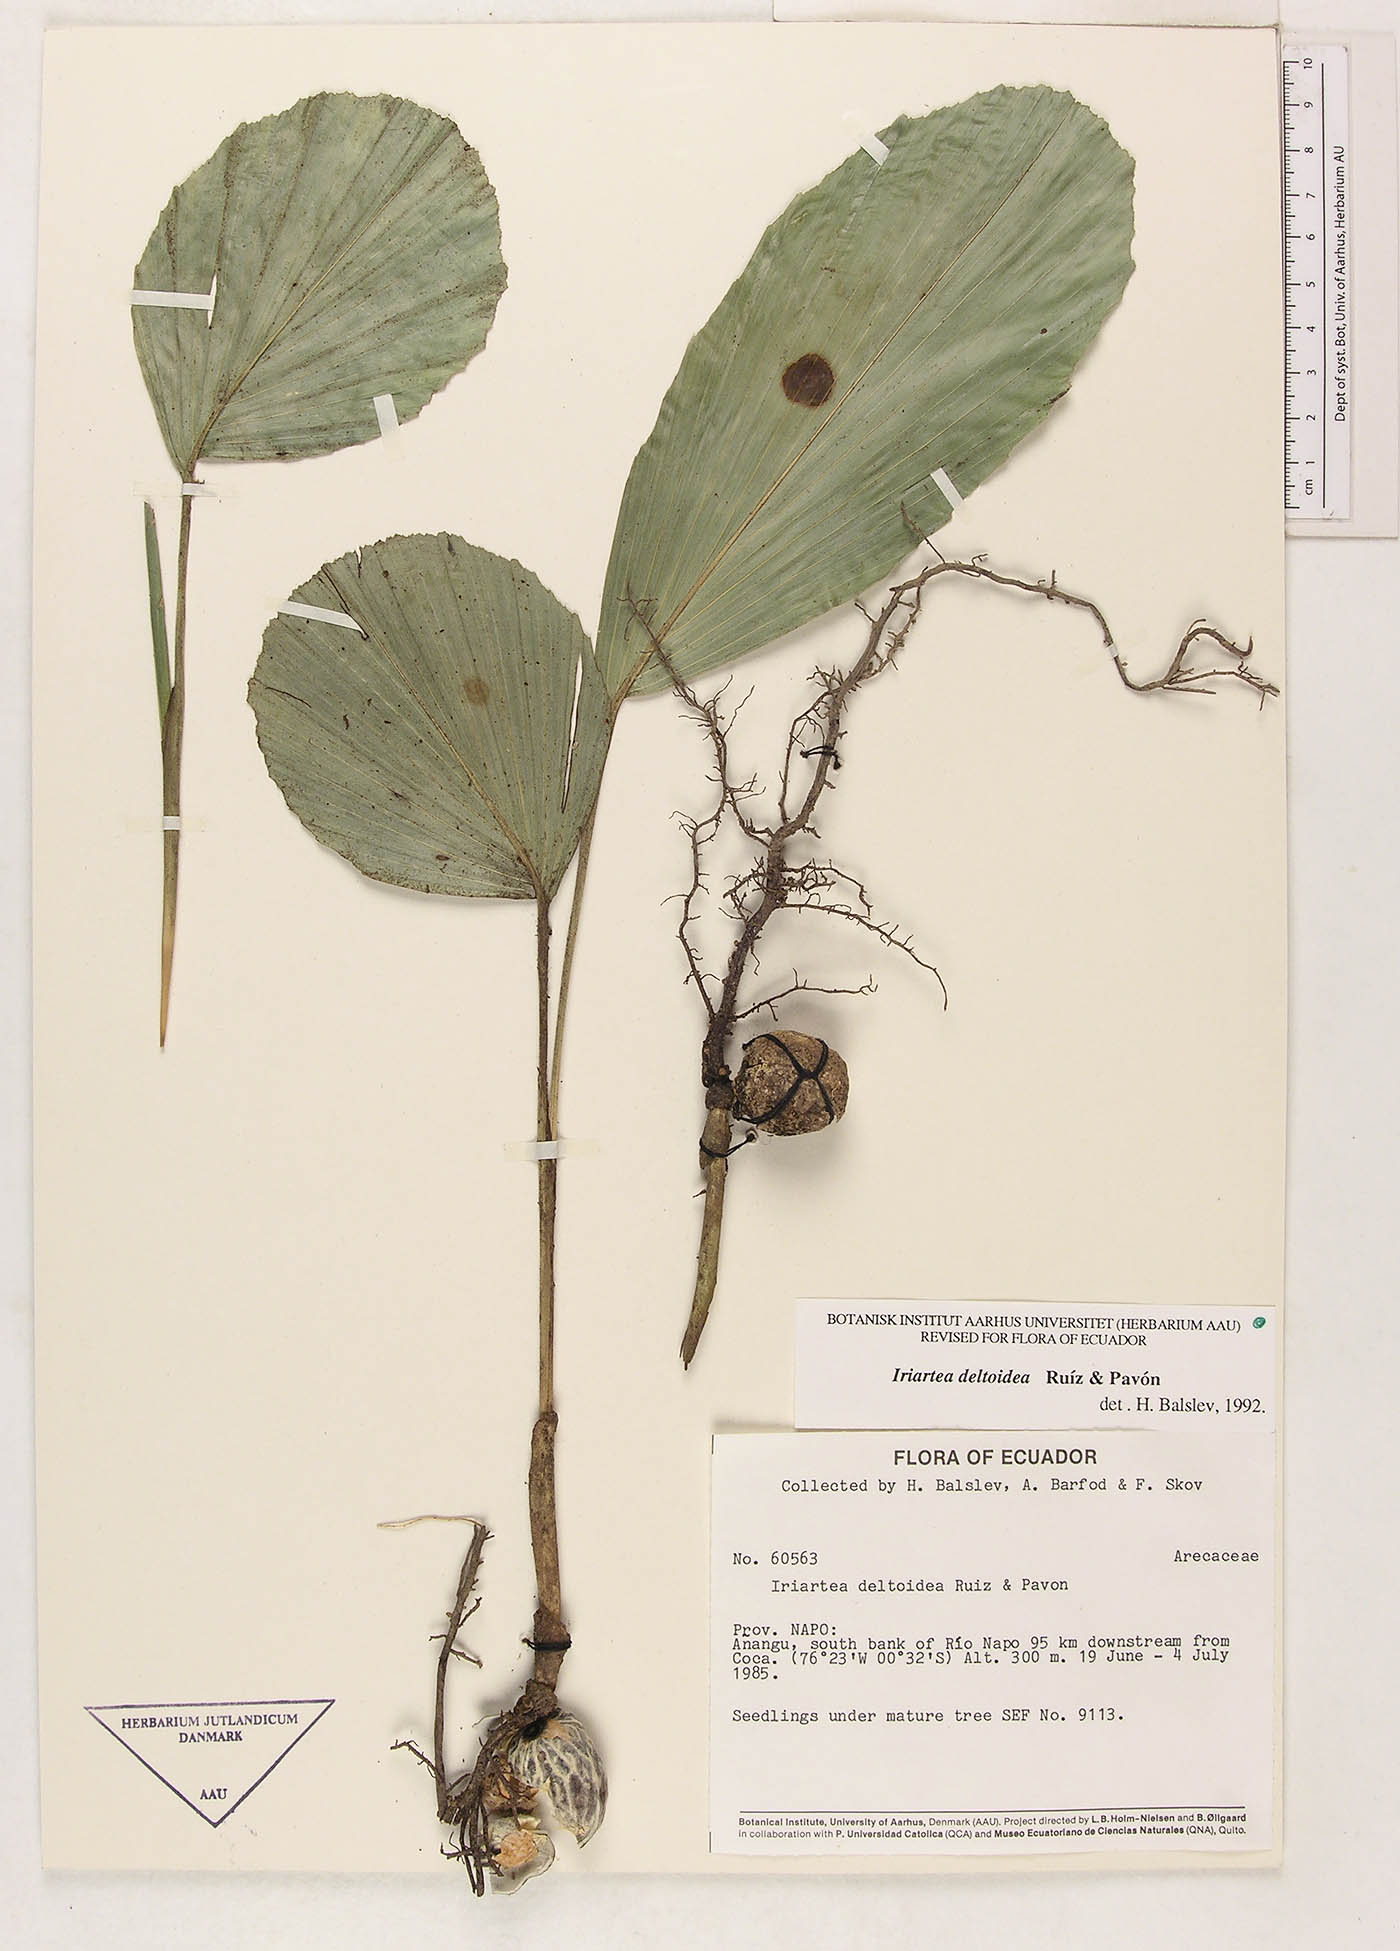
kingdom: Plantae
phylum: Tracheophyta
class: Liliopsida
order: Arecales
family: Arecaceae
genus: Iriartea
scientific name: Iriartea deltoidea
